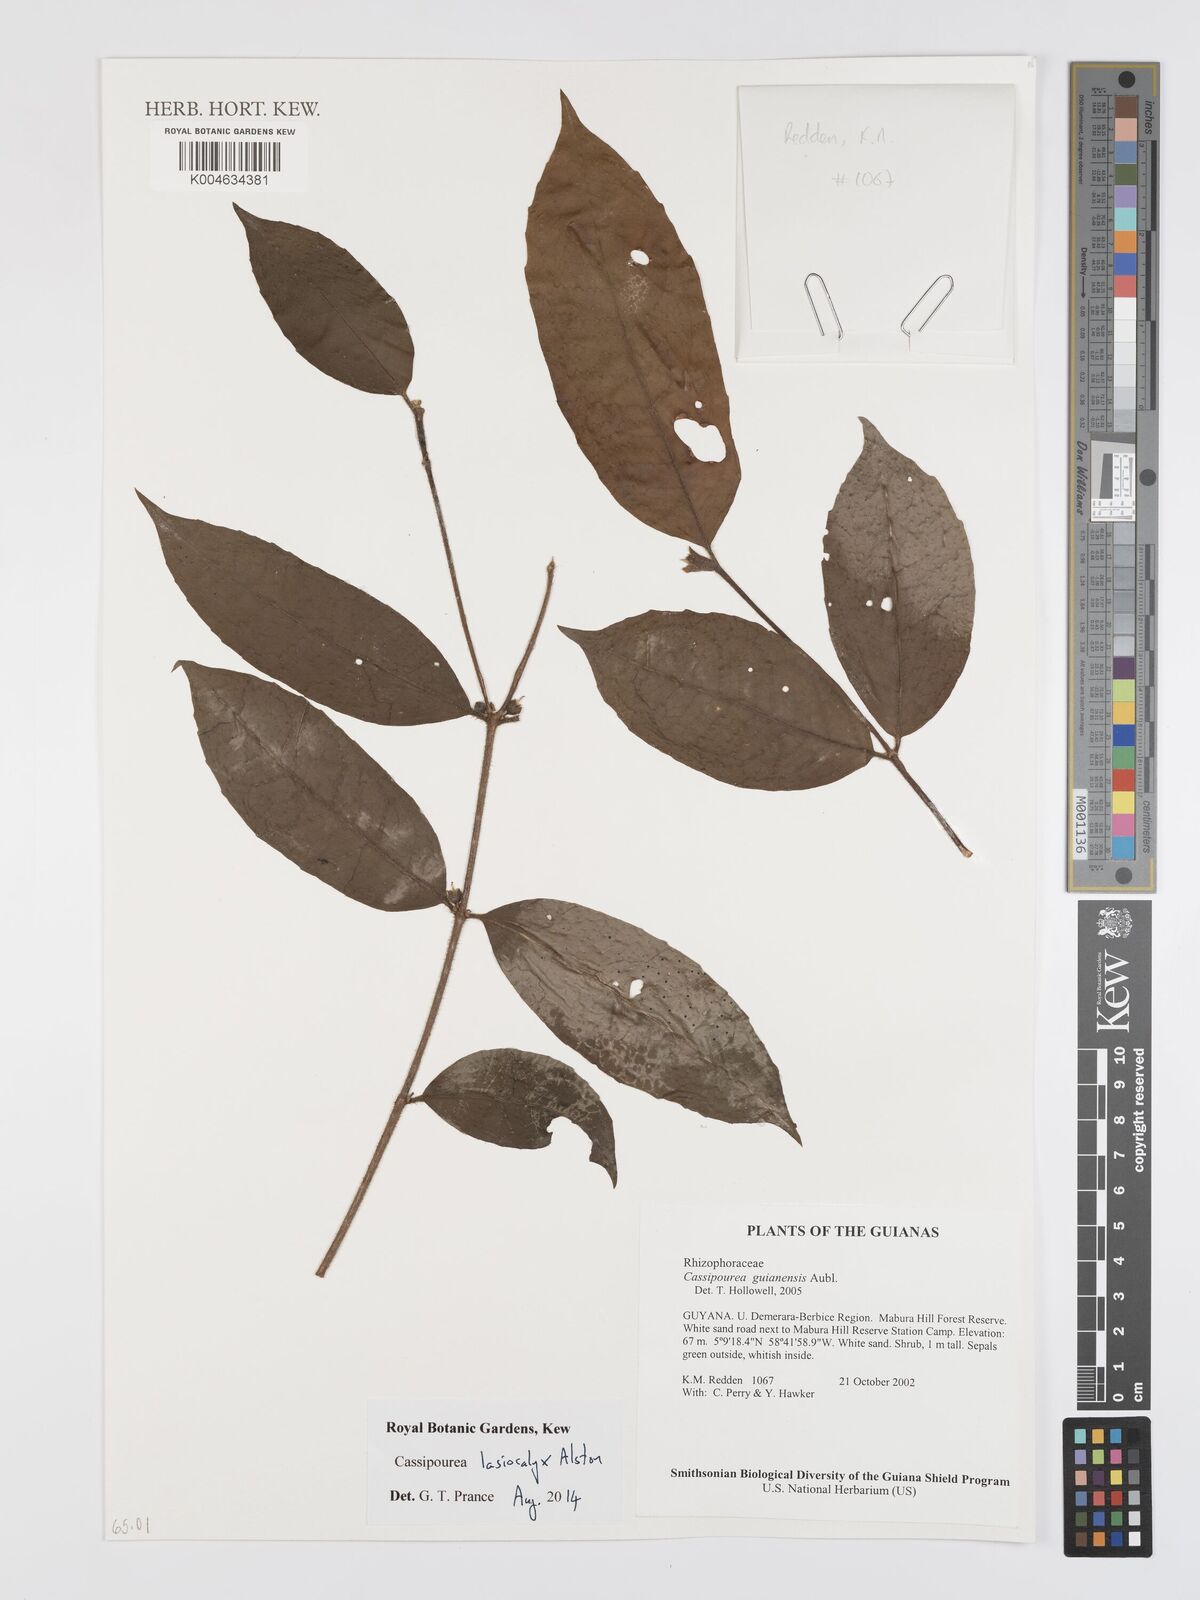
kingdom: Plantae
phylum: Tracheophyta
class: Magnoliopsida
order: Malpighiales
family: Rhizophoraceae
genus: Cassipourea
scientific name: Cassipourea lasiocalyx
